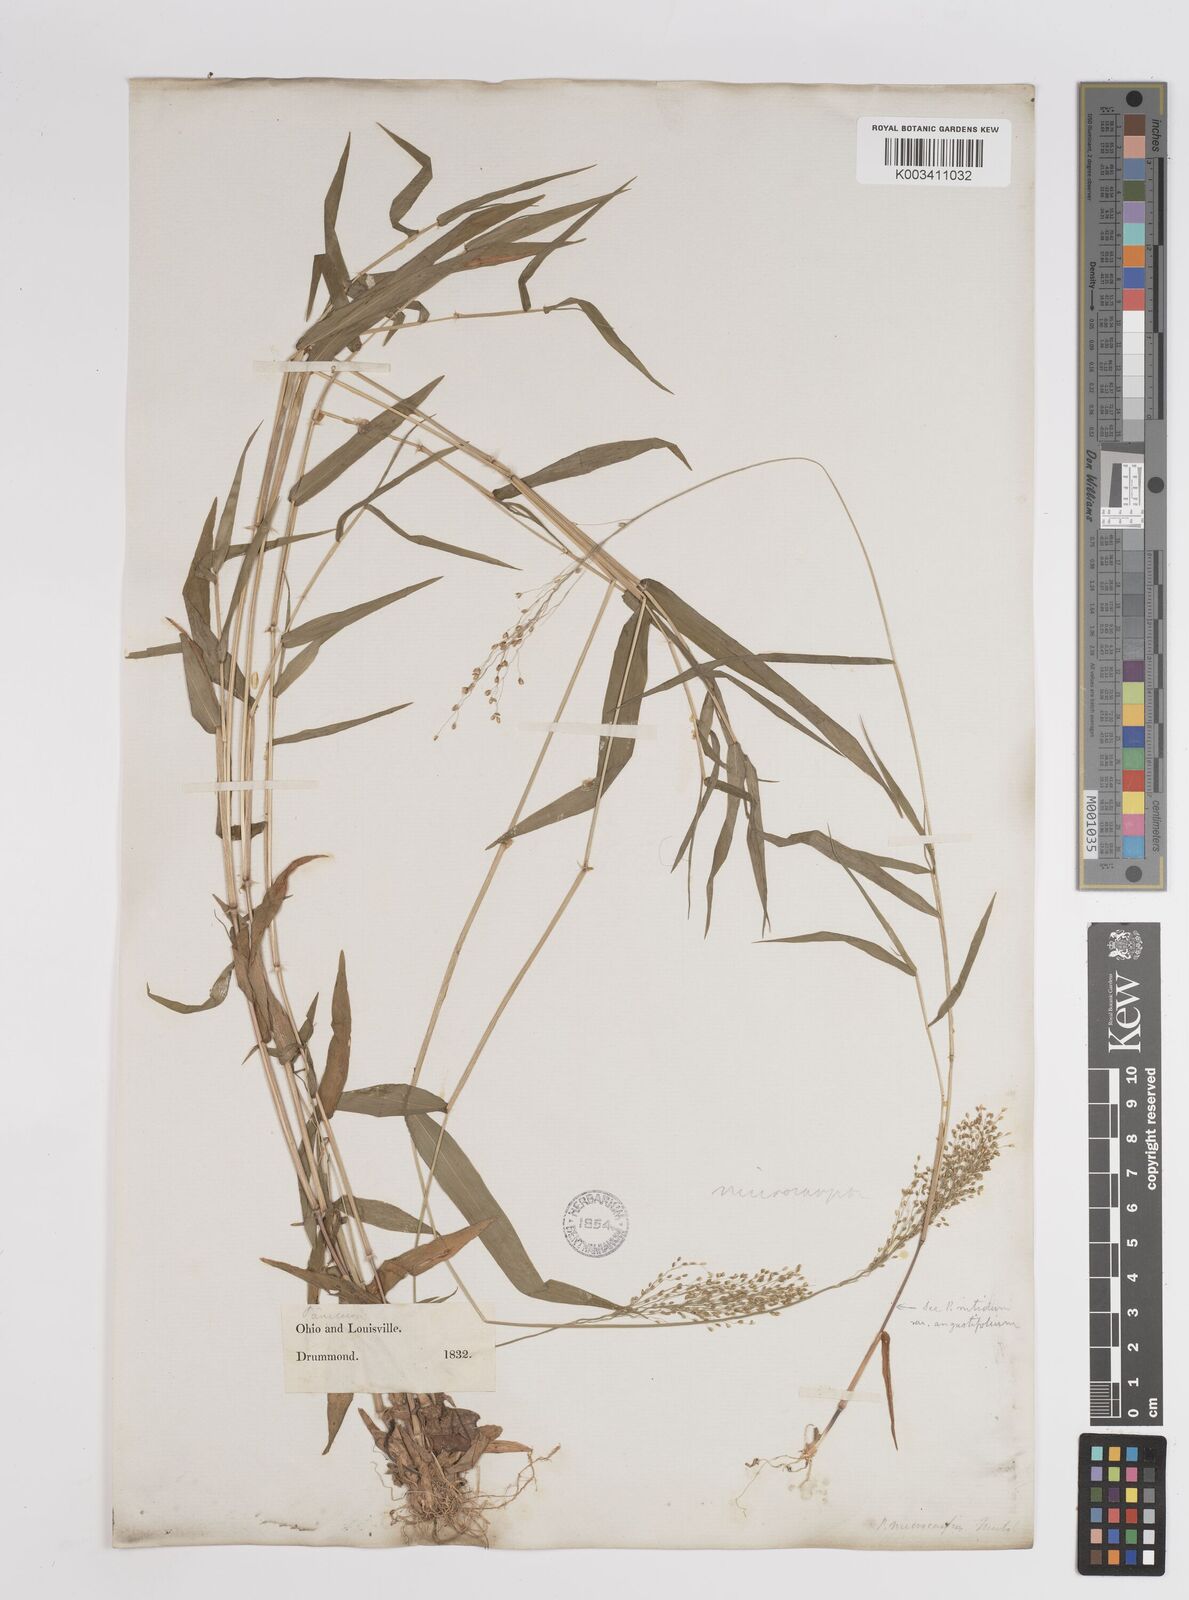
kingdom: Plantae
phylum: Tracheophyta
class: Liliopsida
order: Poales
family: Poaceae
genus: Setaria
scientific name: Setaria tenax
